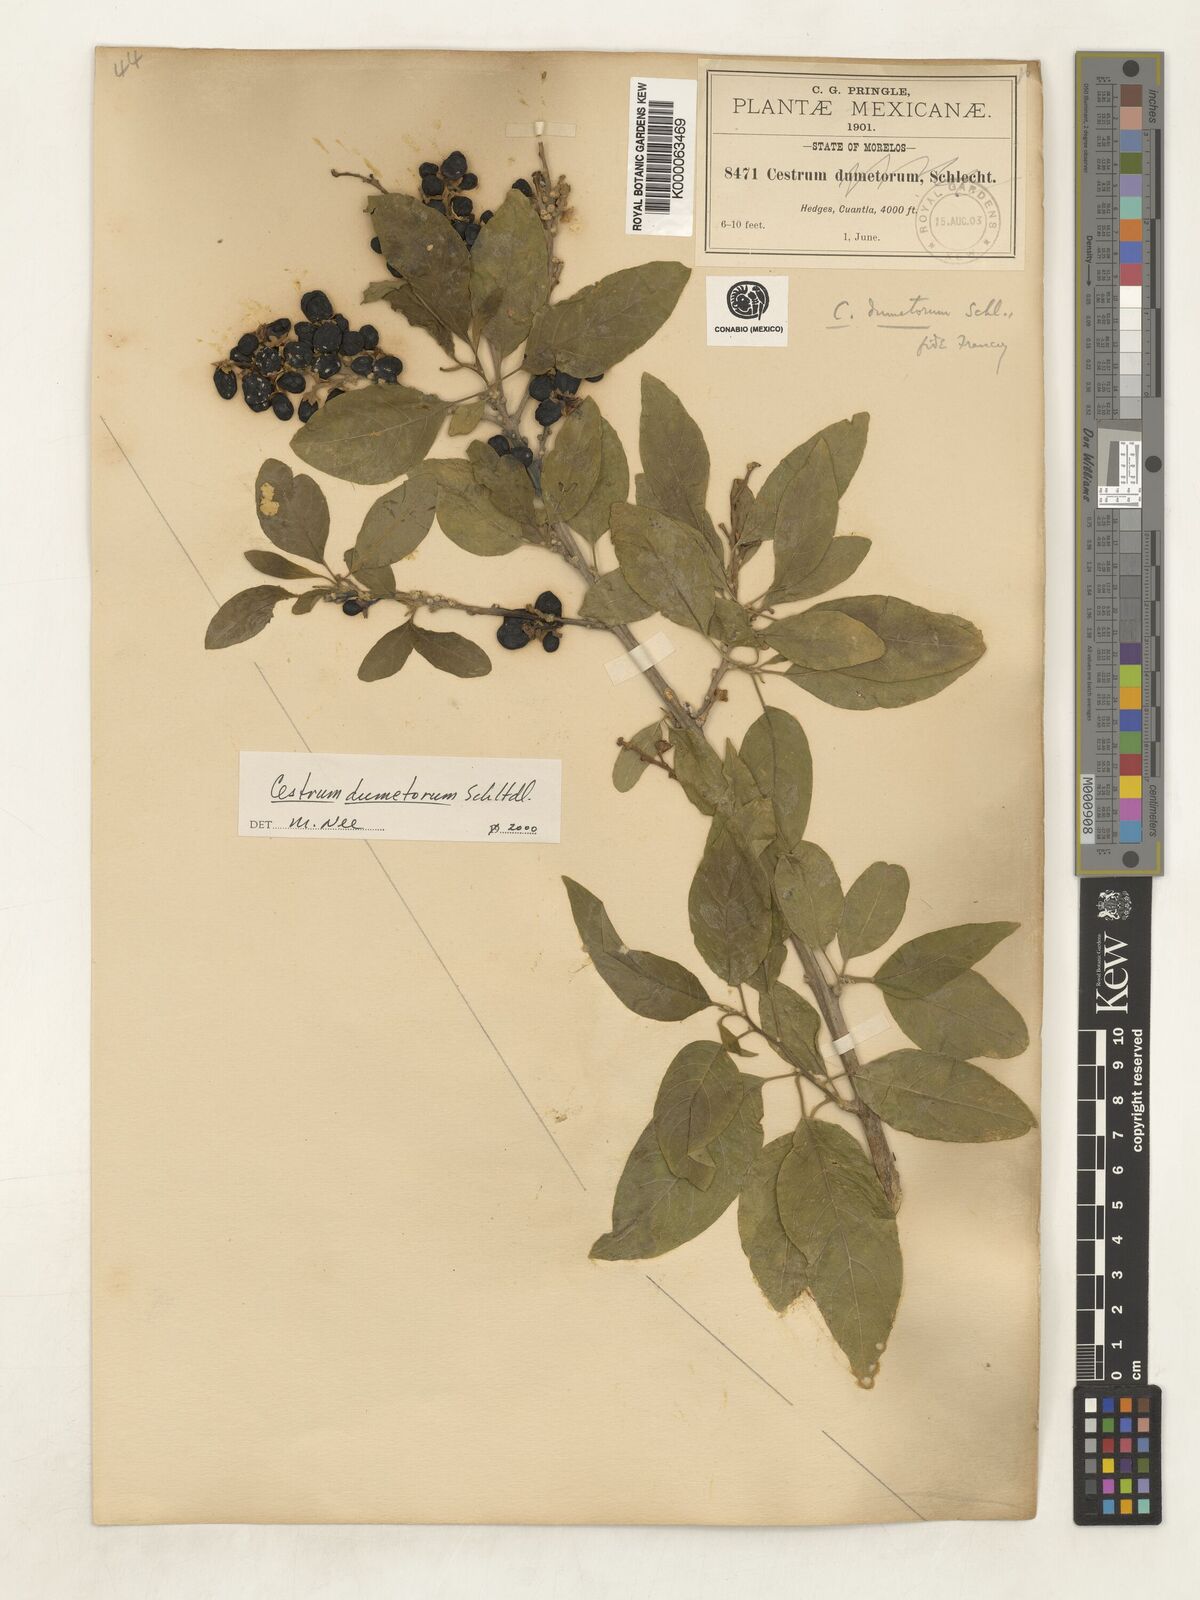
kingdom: Plantae
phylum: Tracheophyta
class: Magnoliopsida
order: Solanales
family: Solanaceae
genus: Cestrum
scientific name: Cestrum dumetorum
